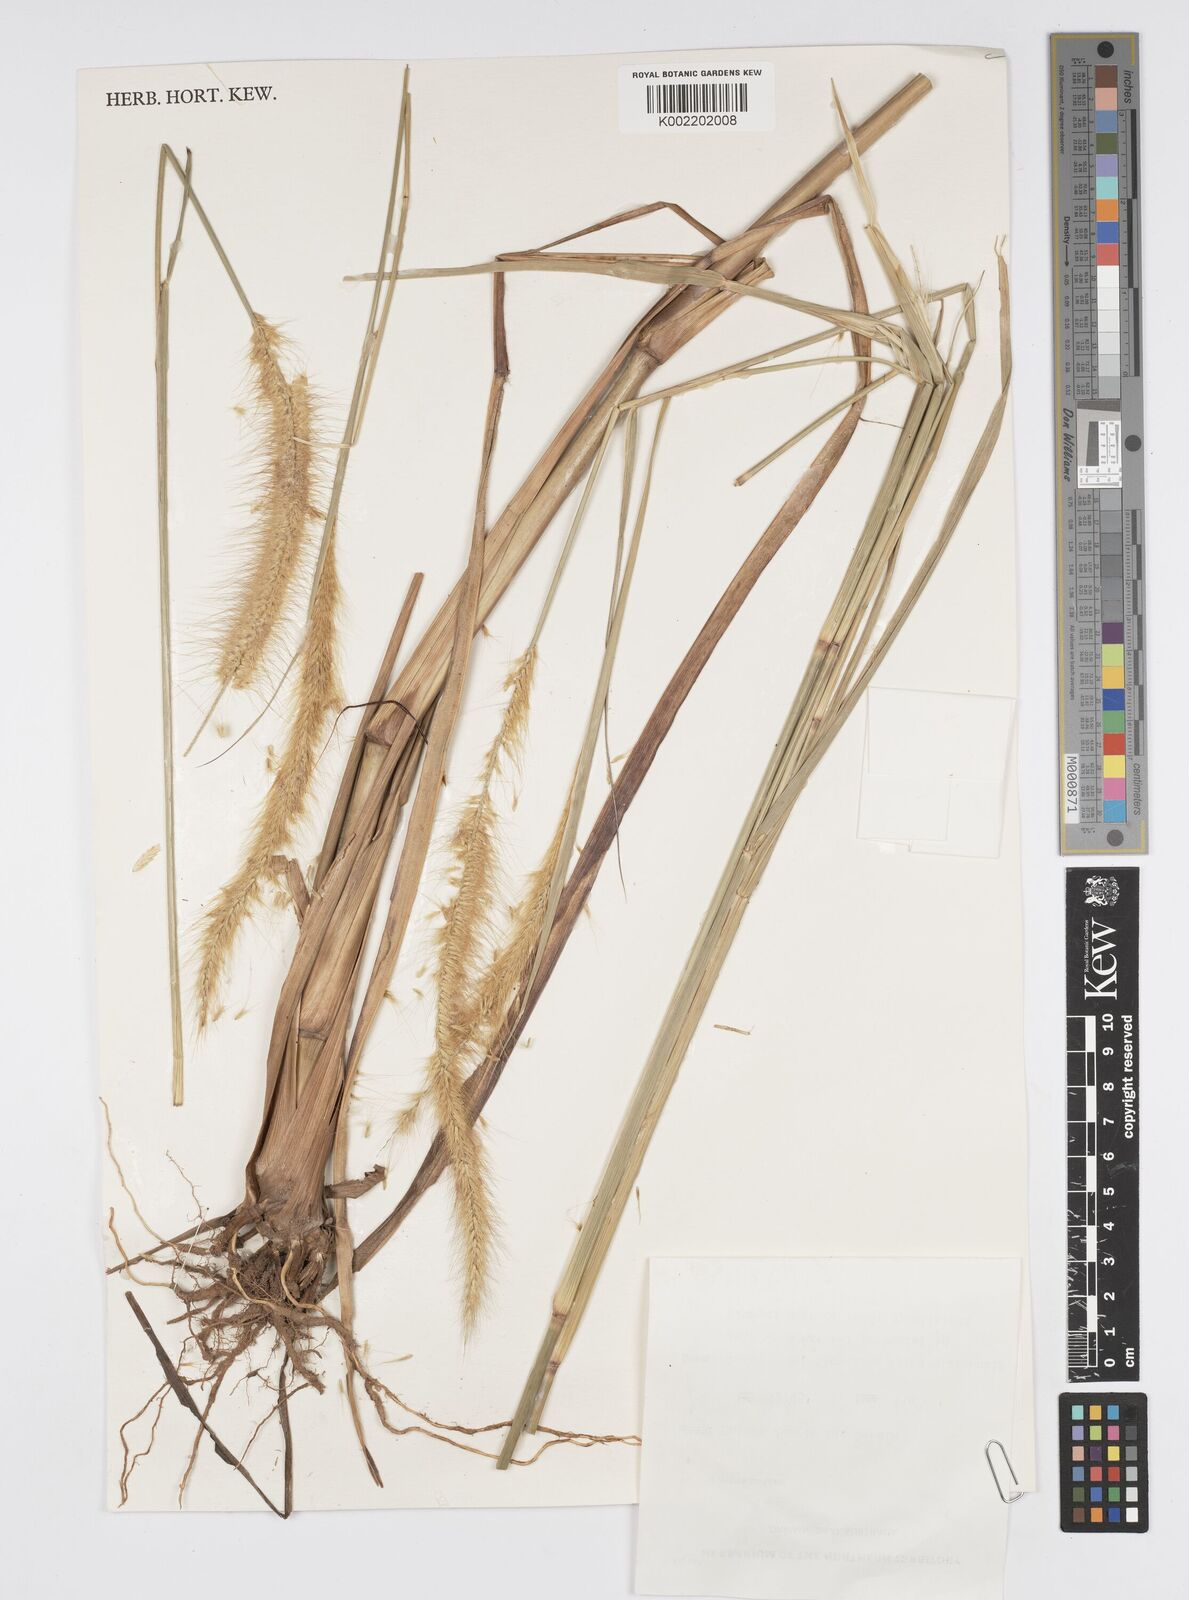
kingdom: Plantae
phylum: Tracheophyta
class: Liliopsida
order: Poales
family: Poaceae
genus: Cenchrus
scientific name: Cenchrus Pennisetum spec
